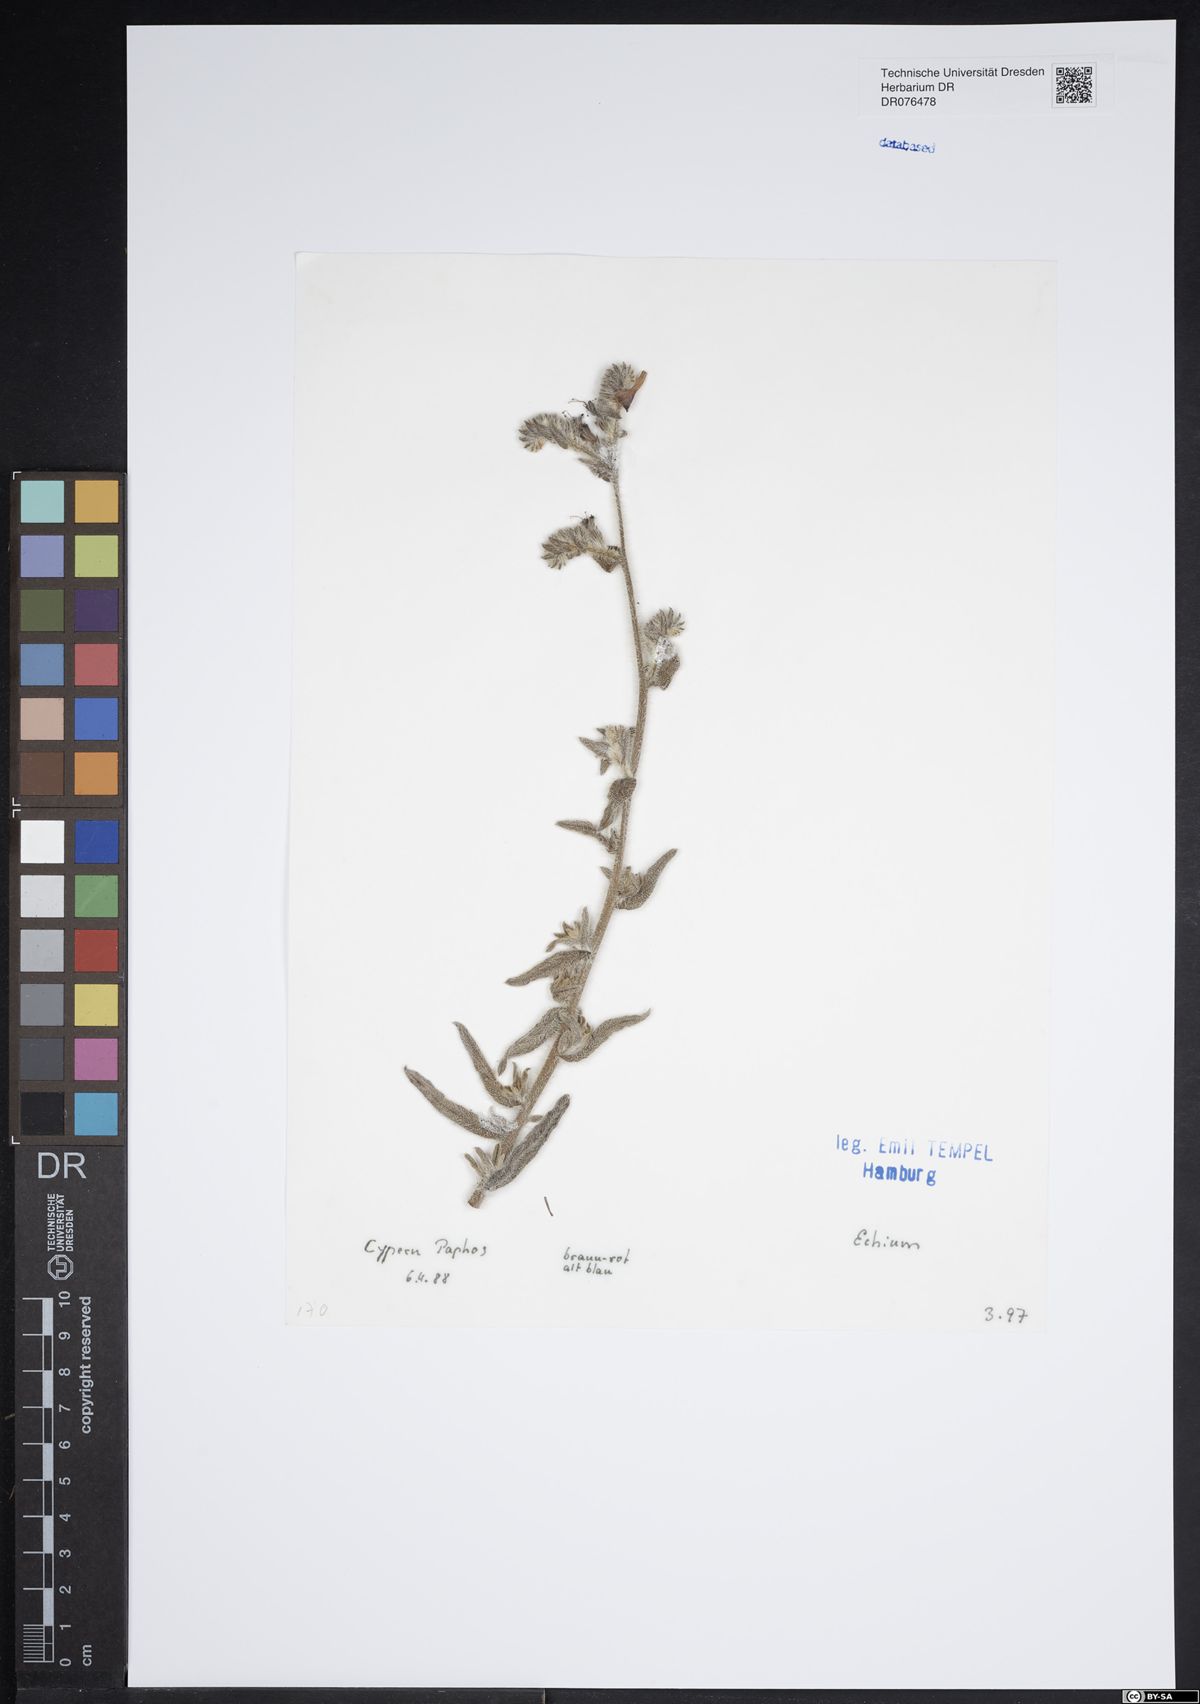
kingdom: Plantae
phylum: Tracheophyta
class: Magnoliopsida
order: Boraginales
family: Boraginaceae
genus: Echium
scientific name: Echium
